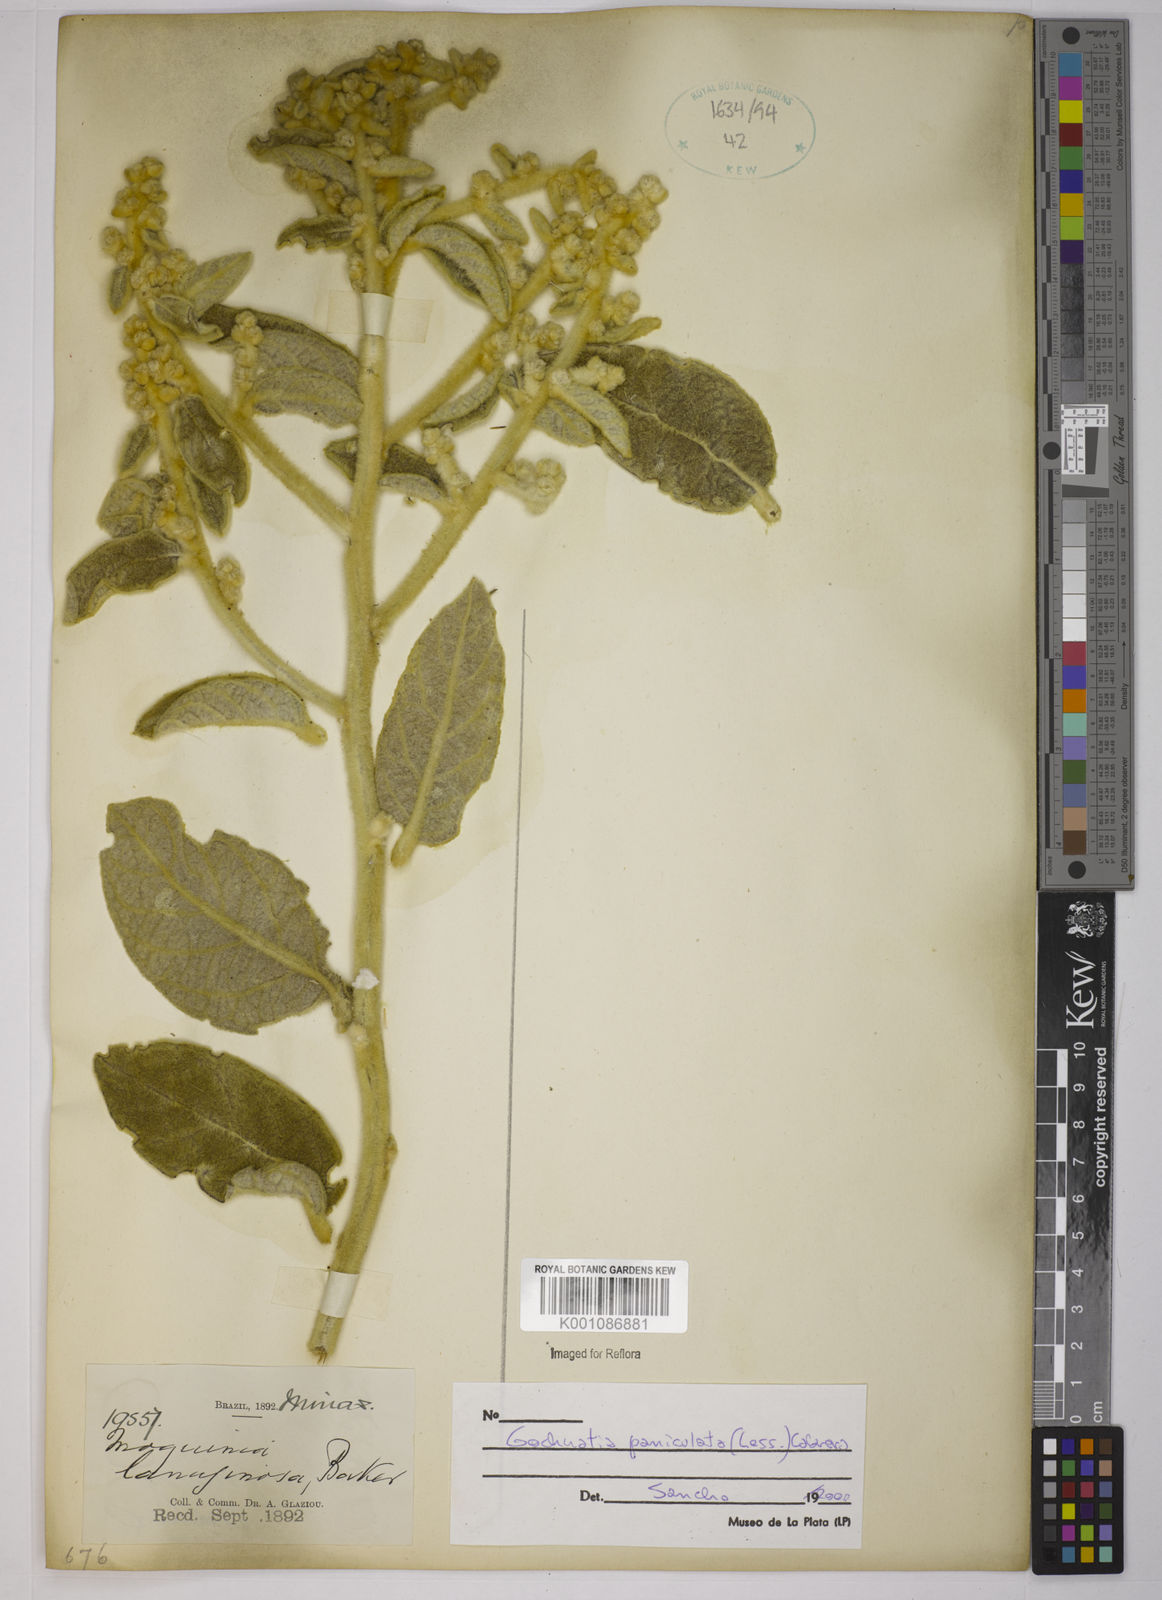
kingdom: Plantae
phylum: Tracheophyta
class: Magnoliopsida
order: Asterales
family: Asteraceae
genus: Moquiniastrum
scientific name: Moquiniastrum paniculatum
